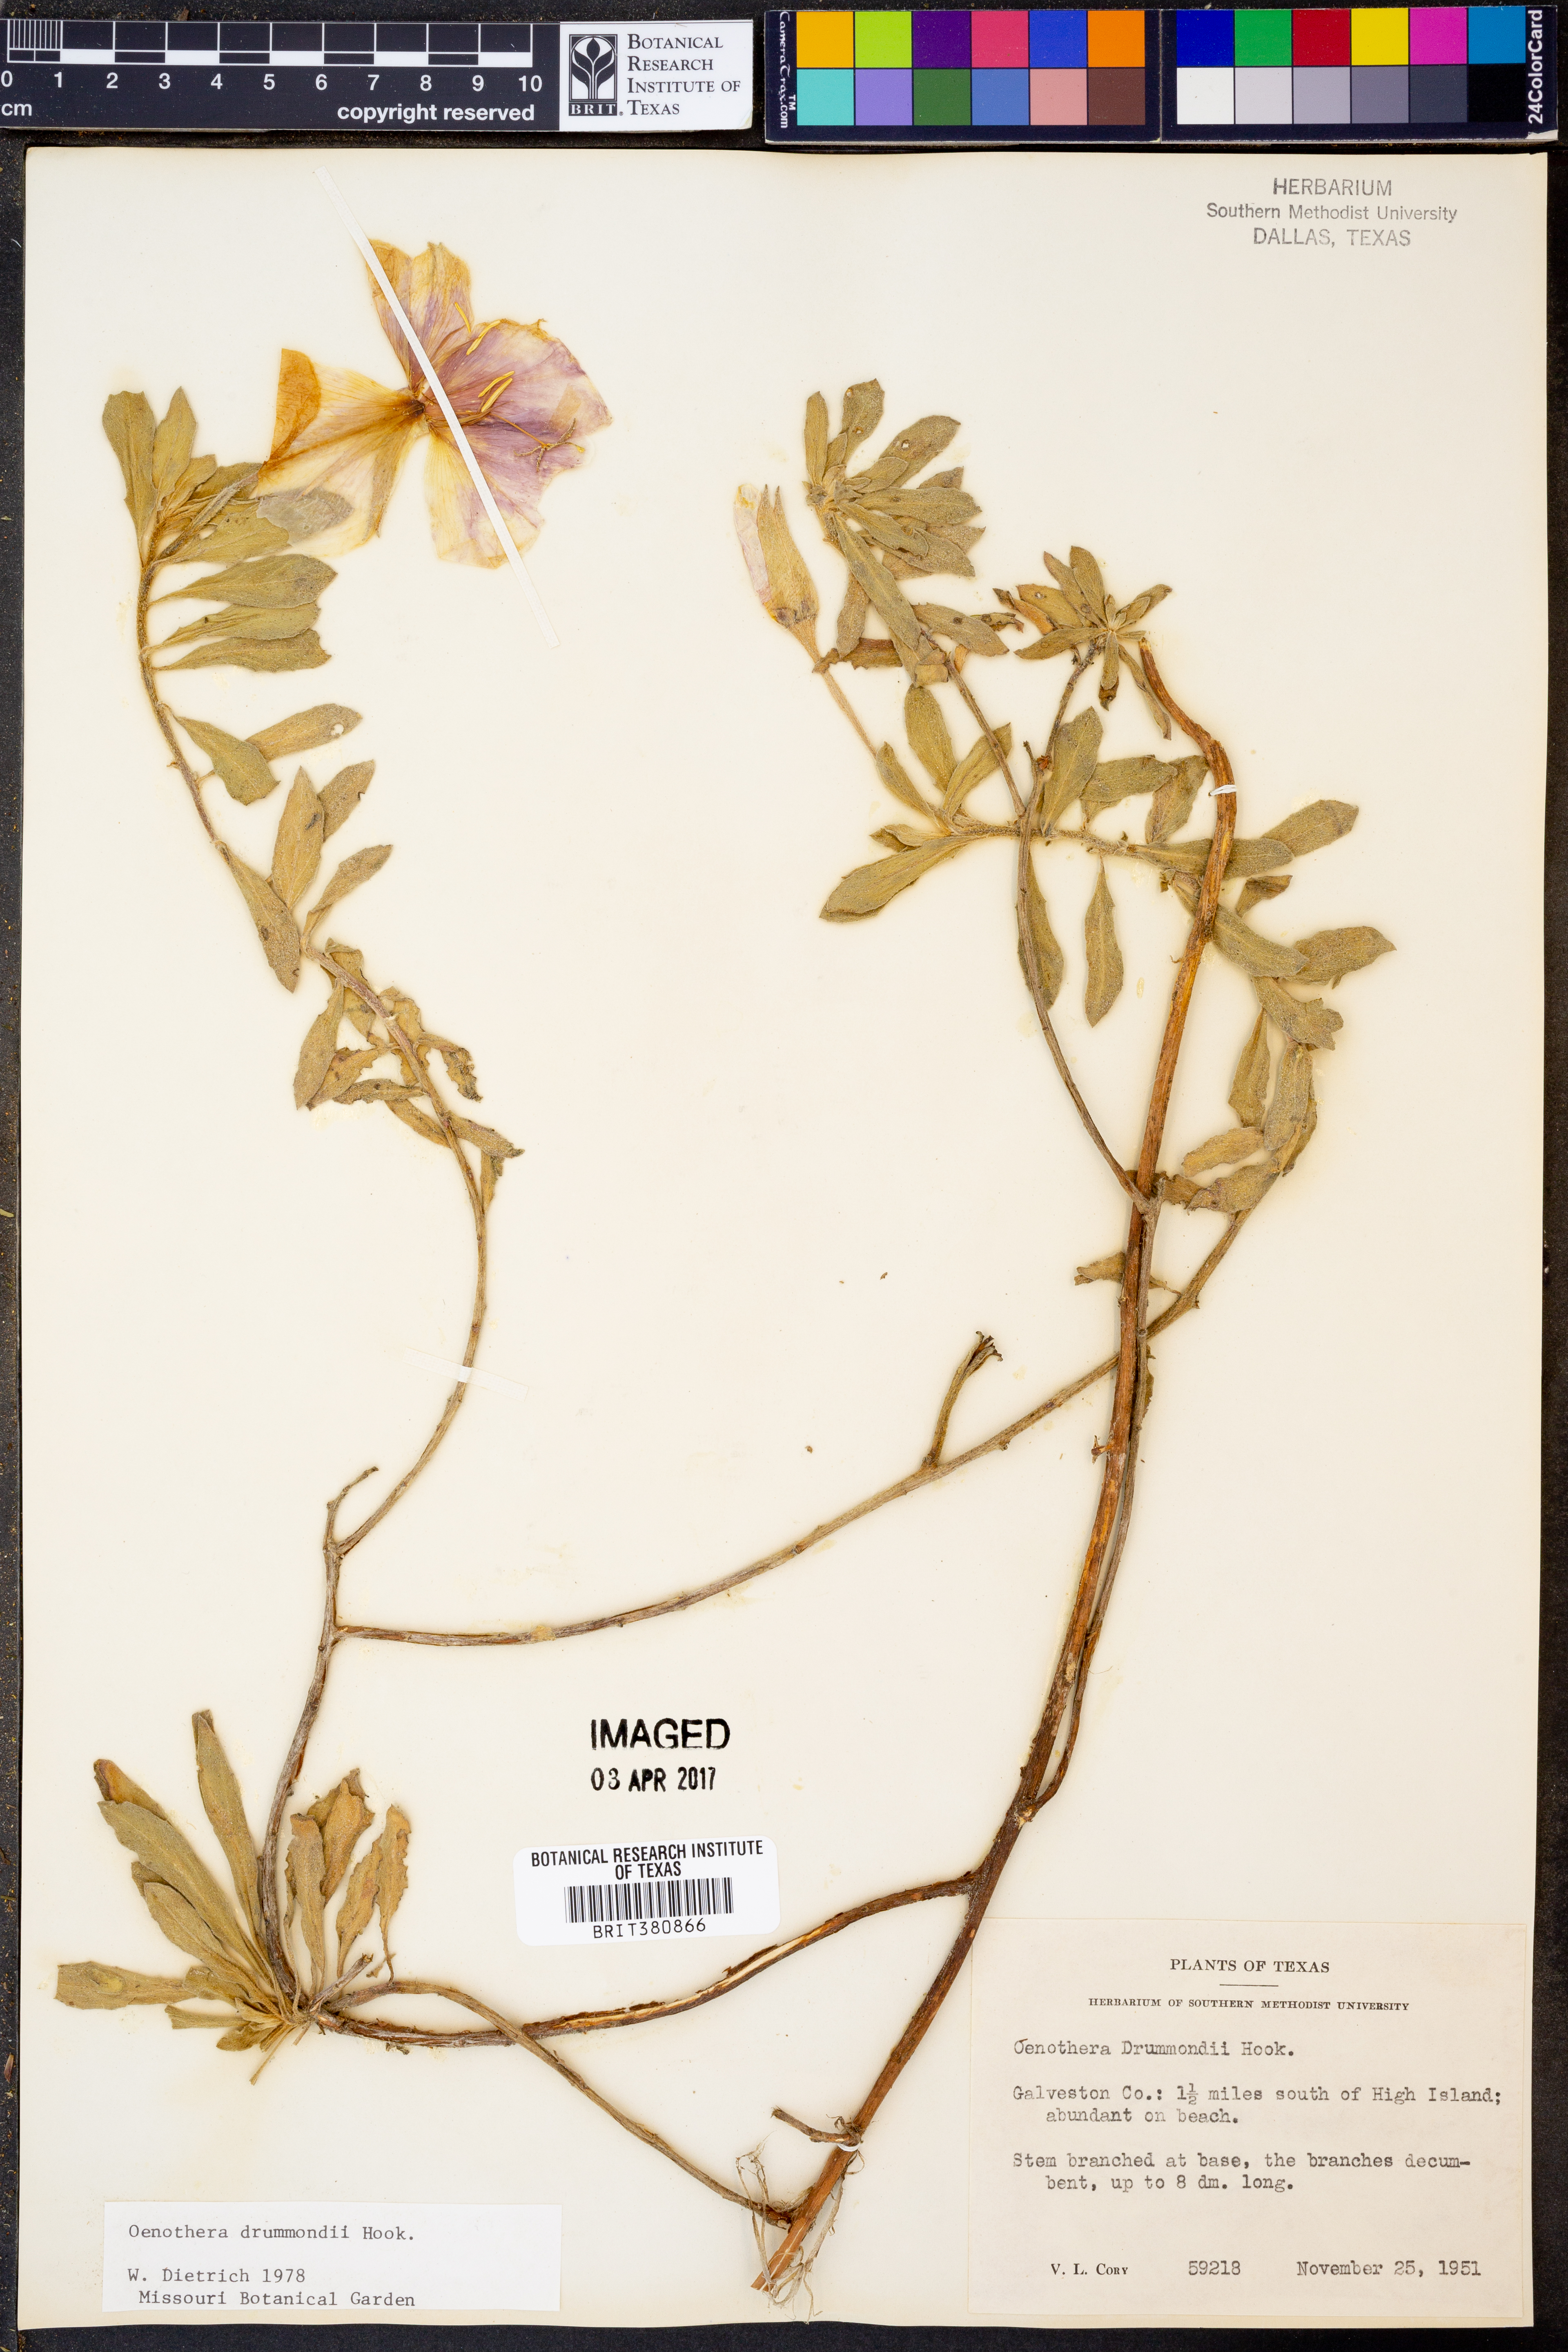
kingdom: Plantae
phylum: Tracheophyta
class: Magnoliopsida
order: Myrtales
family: Onagraceae
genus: Oenothera
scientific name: Oenothera drummondii
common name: Beach evening-primrose
